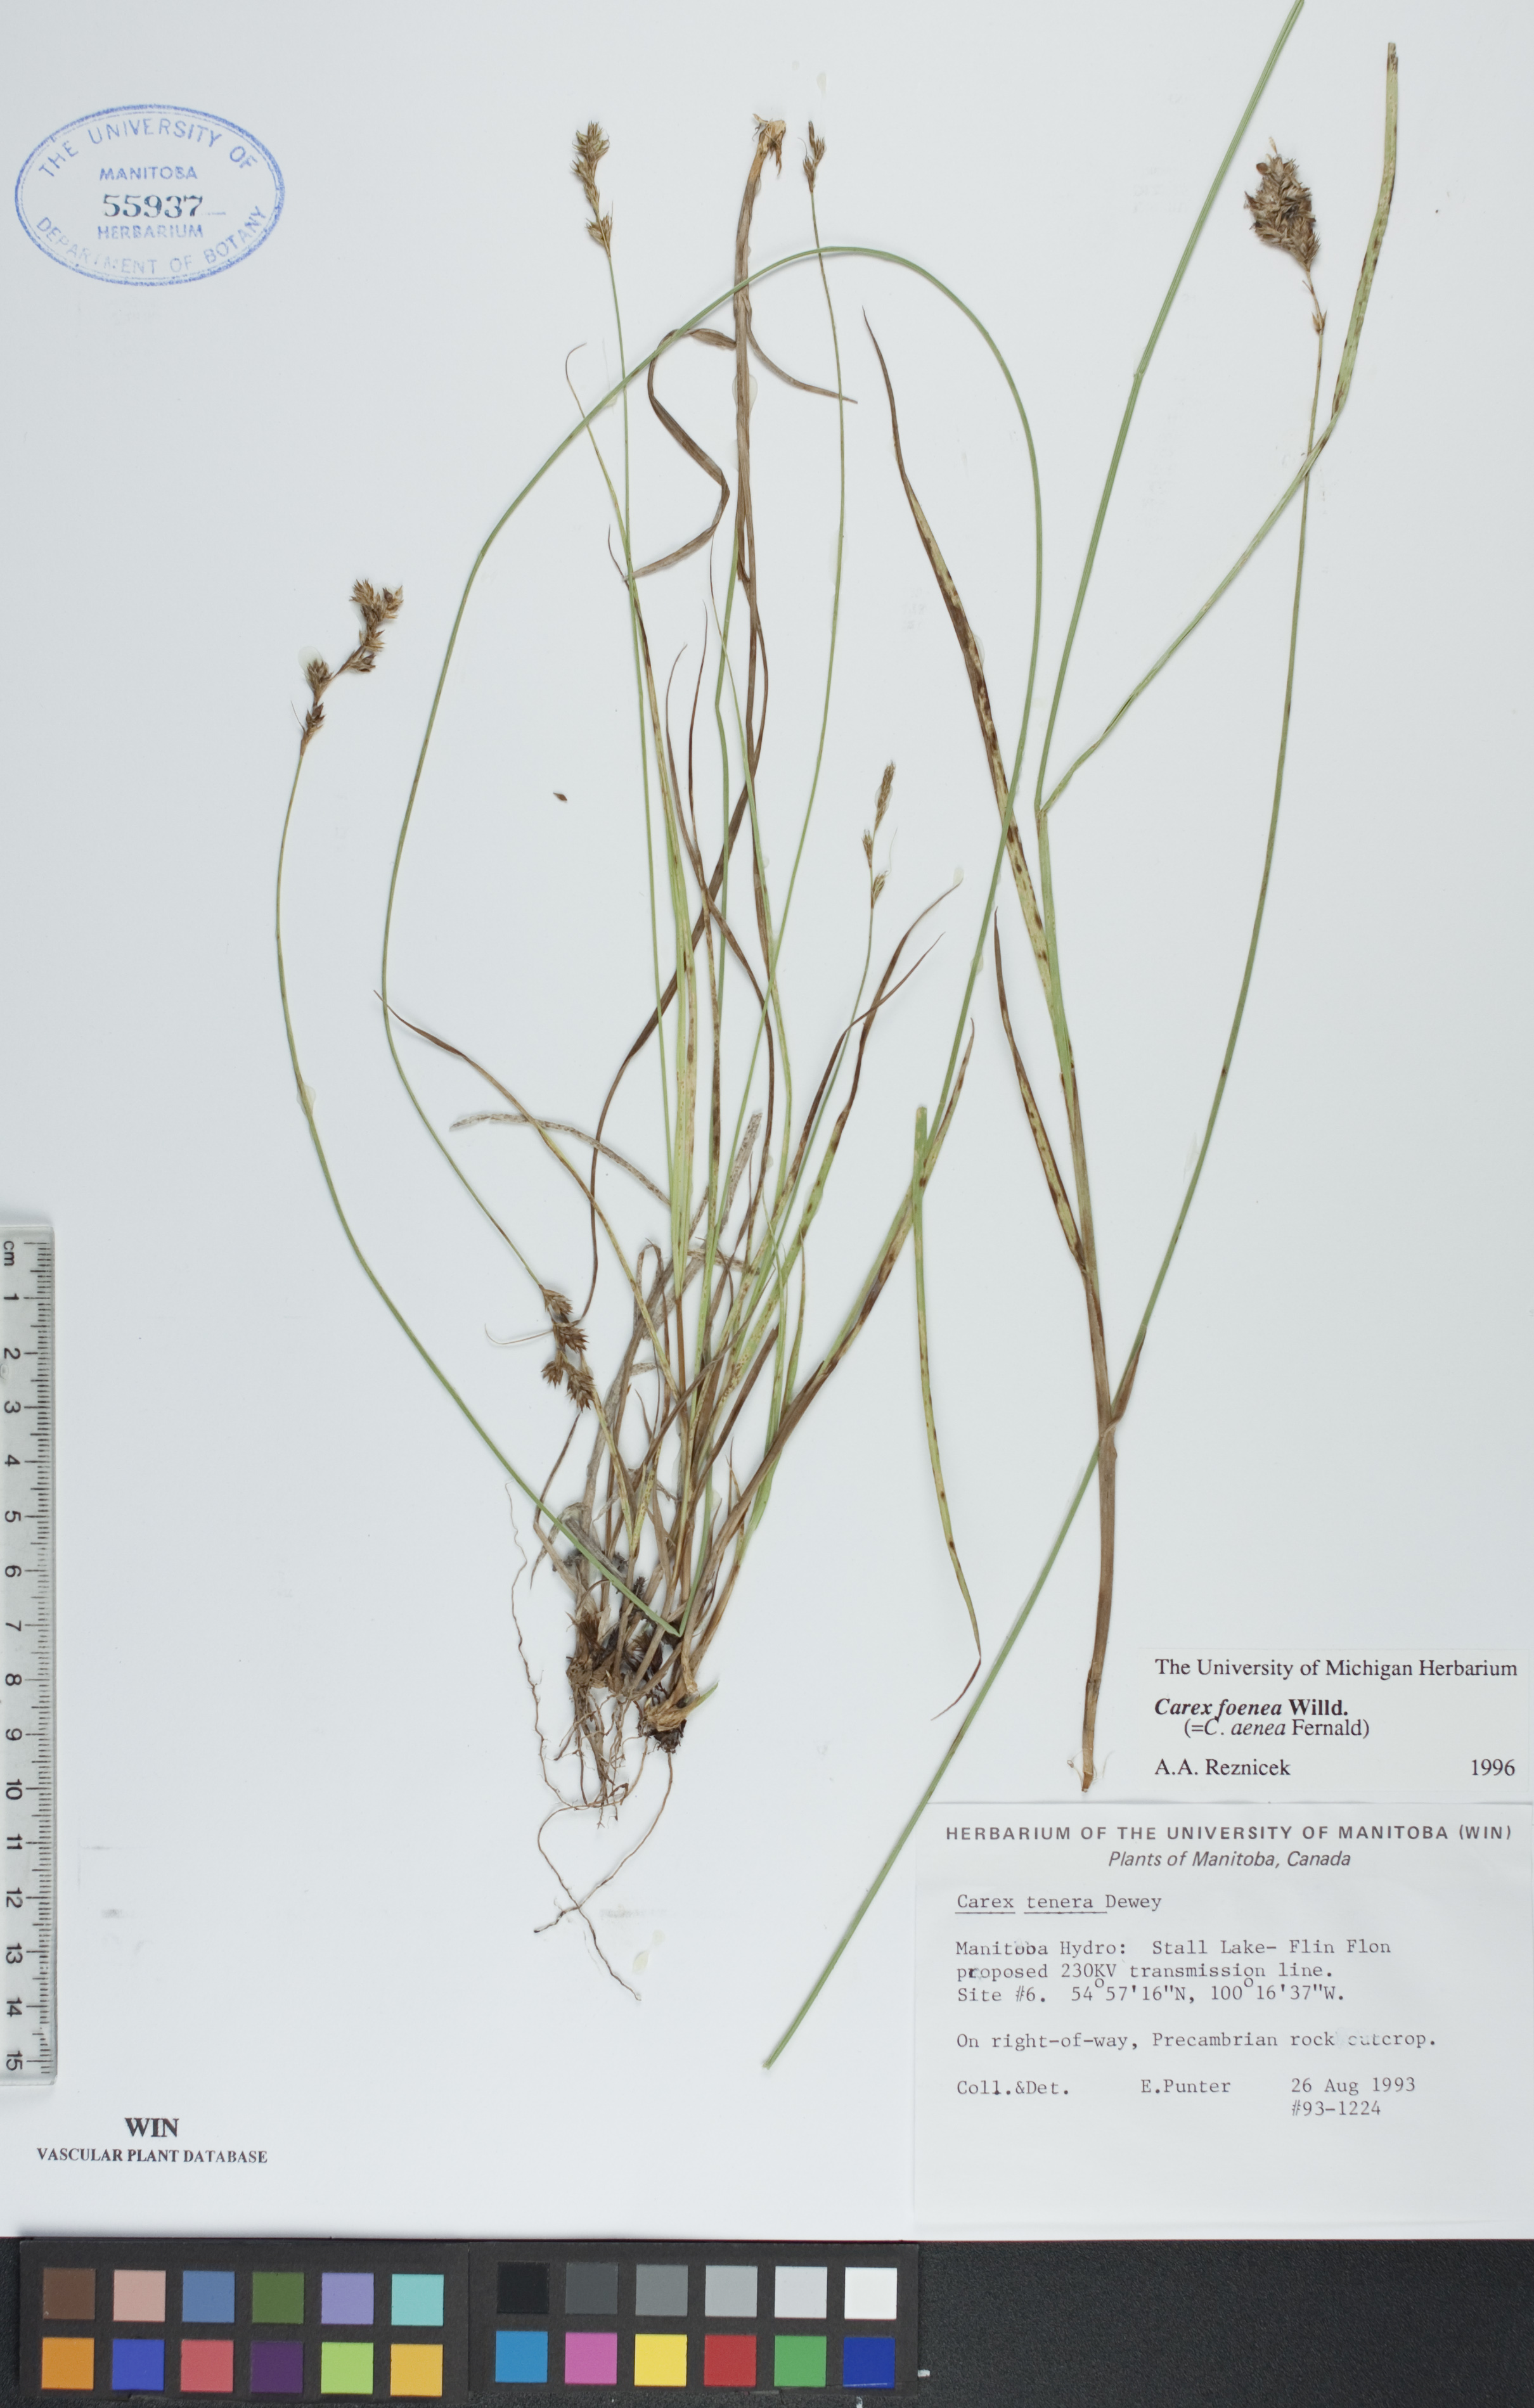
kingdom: Plantae
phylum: Tracheophyta
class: Liliopsida
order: Poales
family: Cyperaceae
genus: Carex
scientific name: Carex foenea
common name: Bronze sedge
